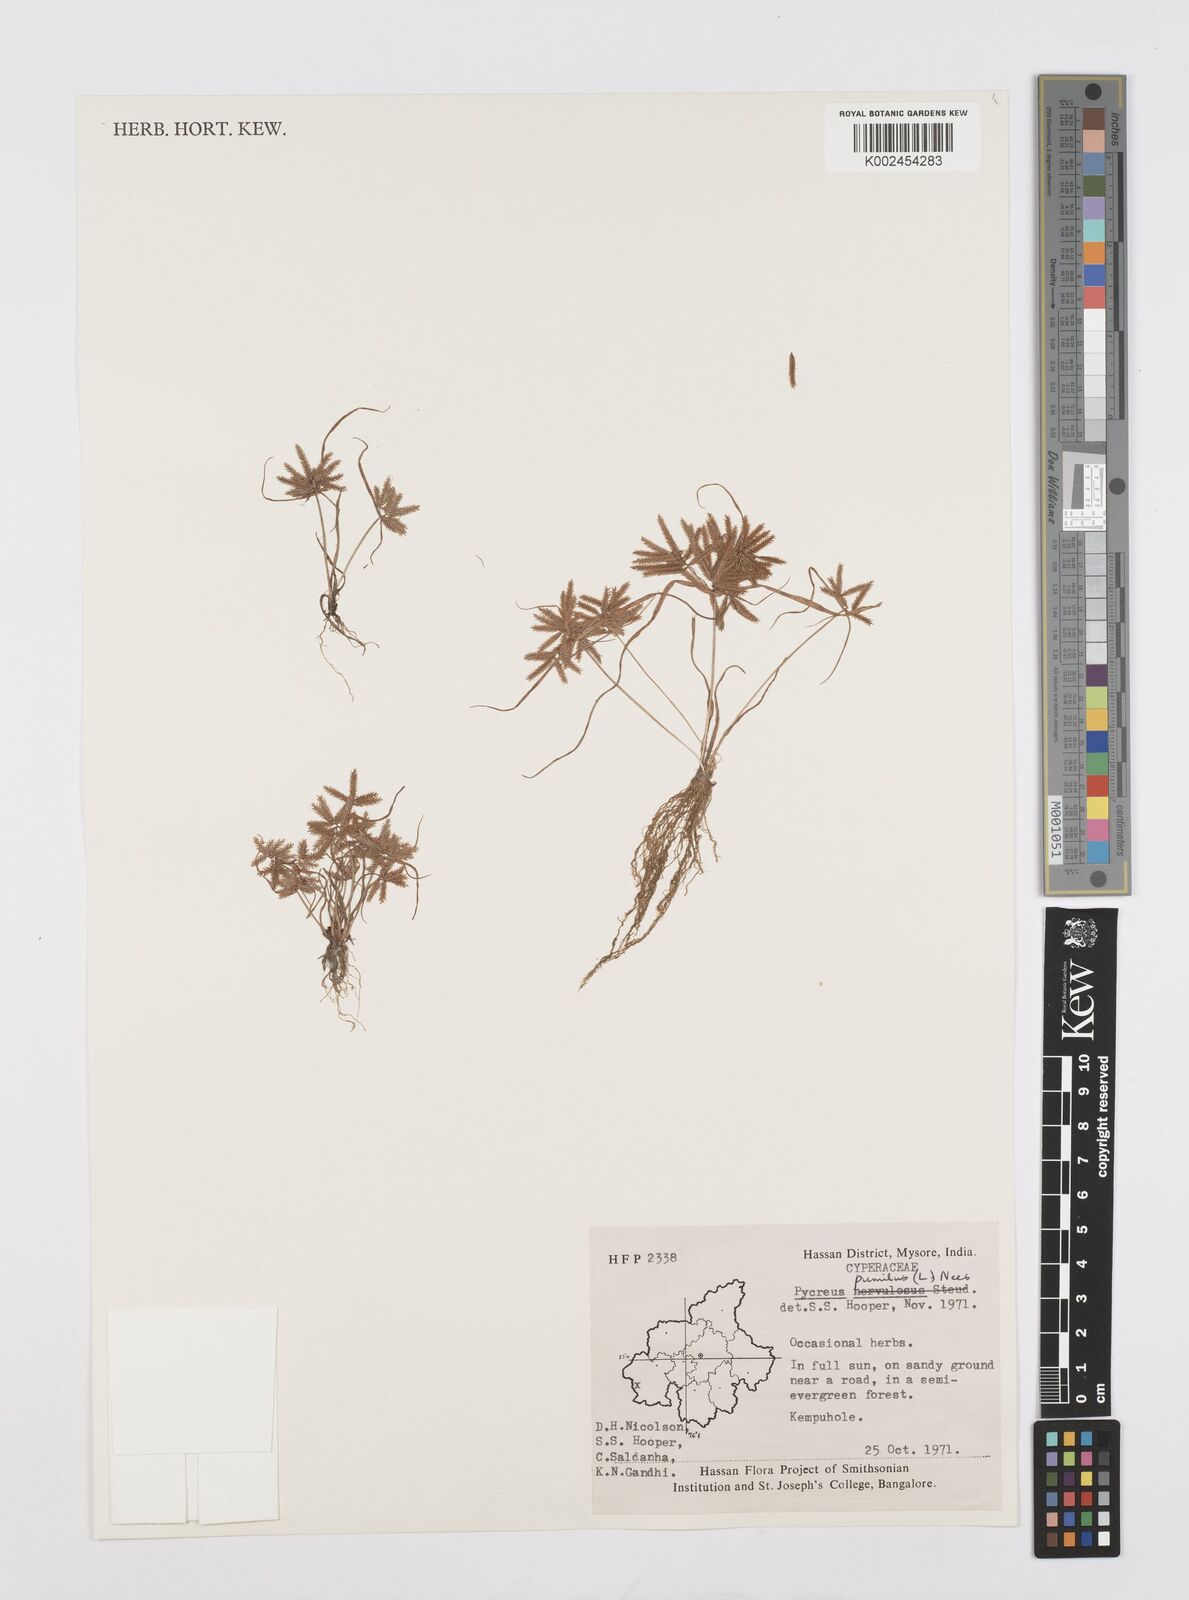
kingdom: Plantae
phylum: Tracheophyta
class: Liliopsida
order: Poales
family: Cyperaceae
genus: Cyperus
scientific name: Cyperus pumilus
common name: Low flatsedge
